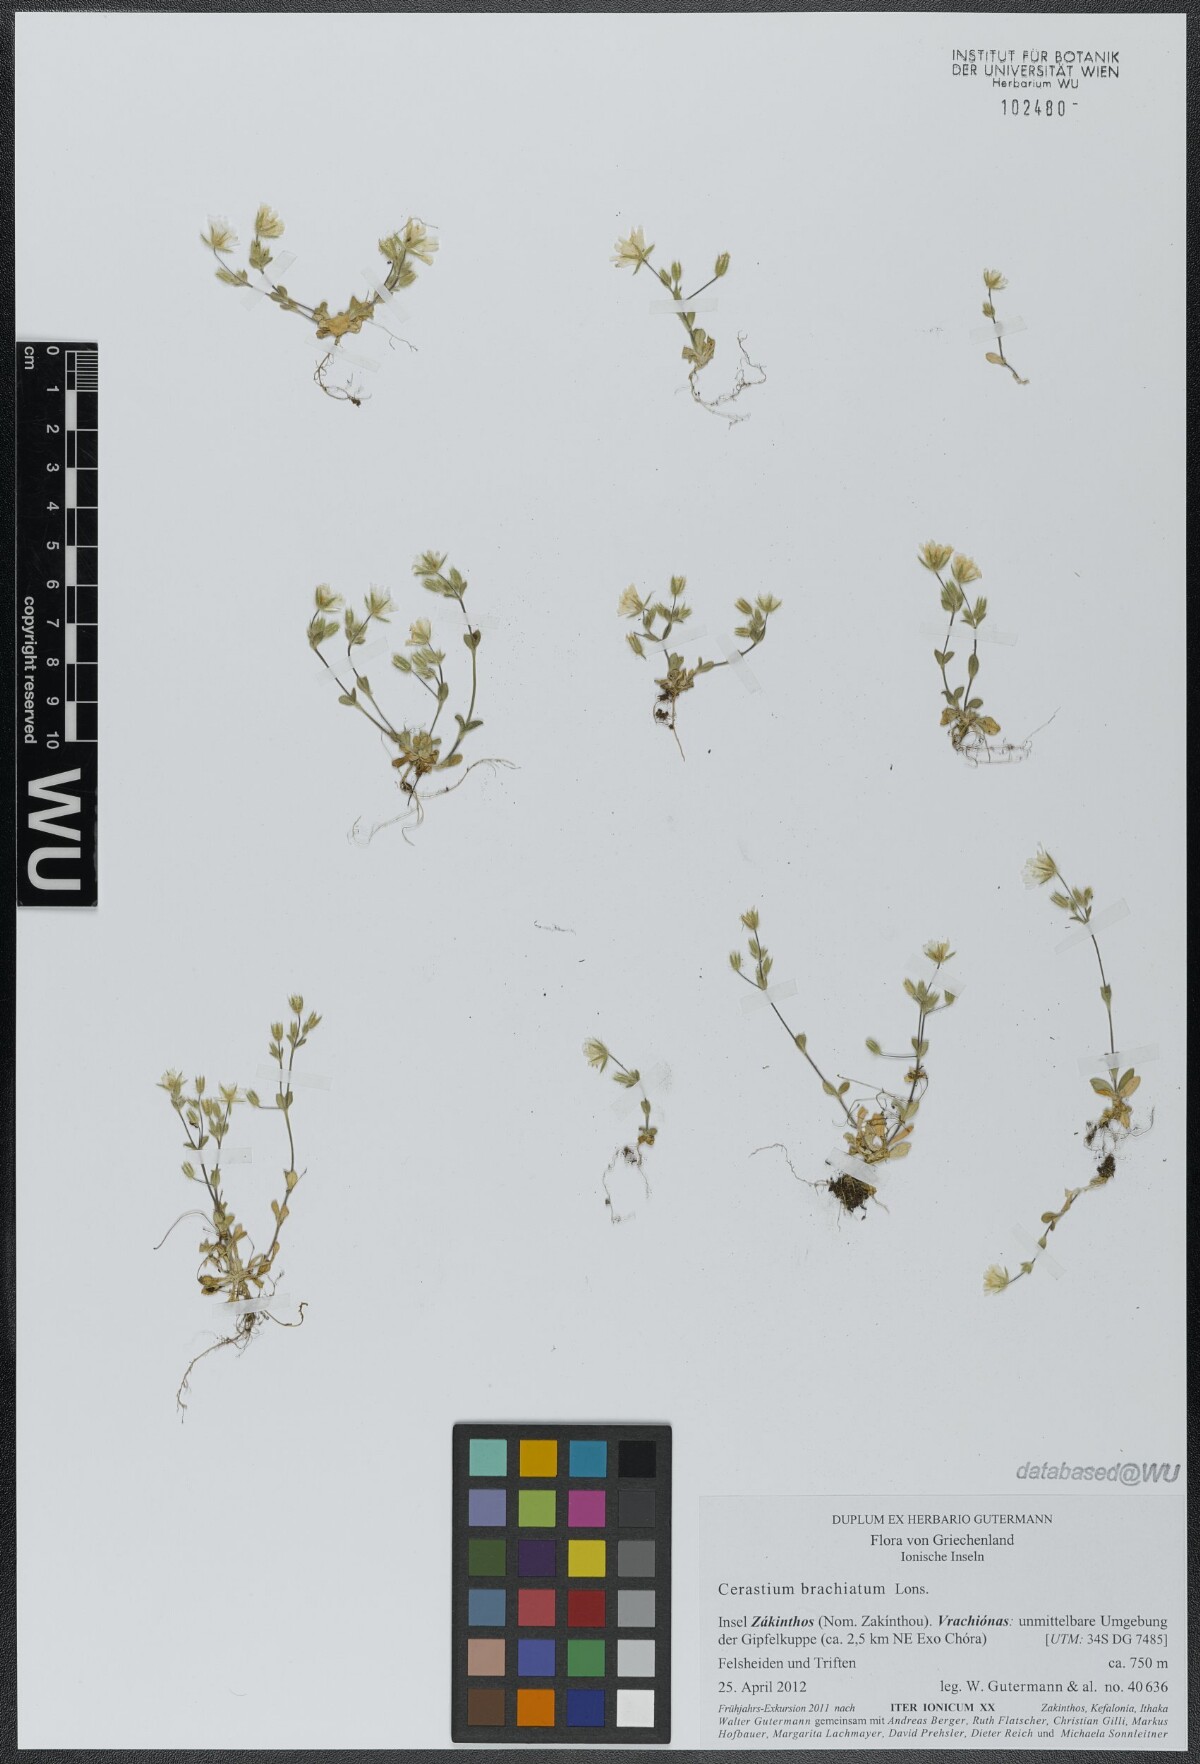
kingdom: Plantae
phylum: Tracheophyta
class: Magnoliopsida
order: Caryophyllales
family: Caryophyllaceae
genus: Cerastium
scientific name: Cerastium illyricum
